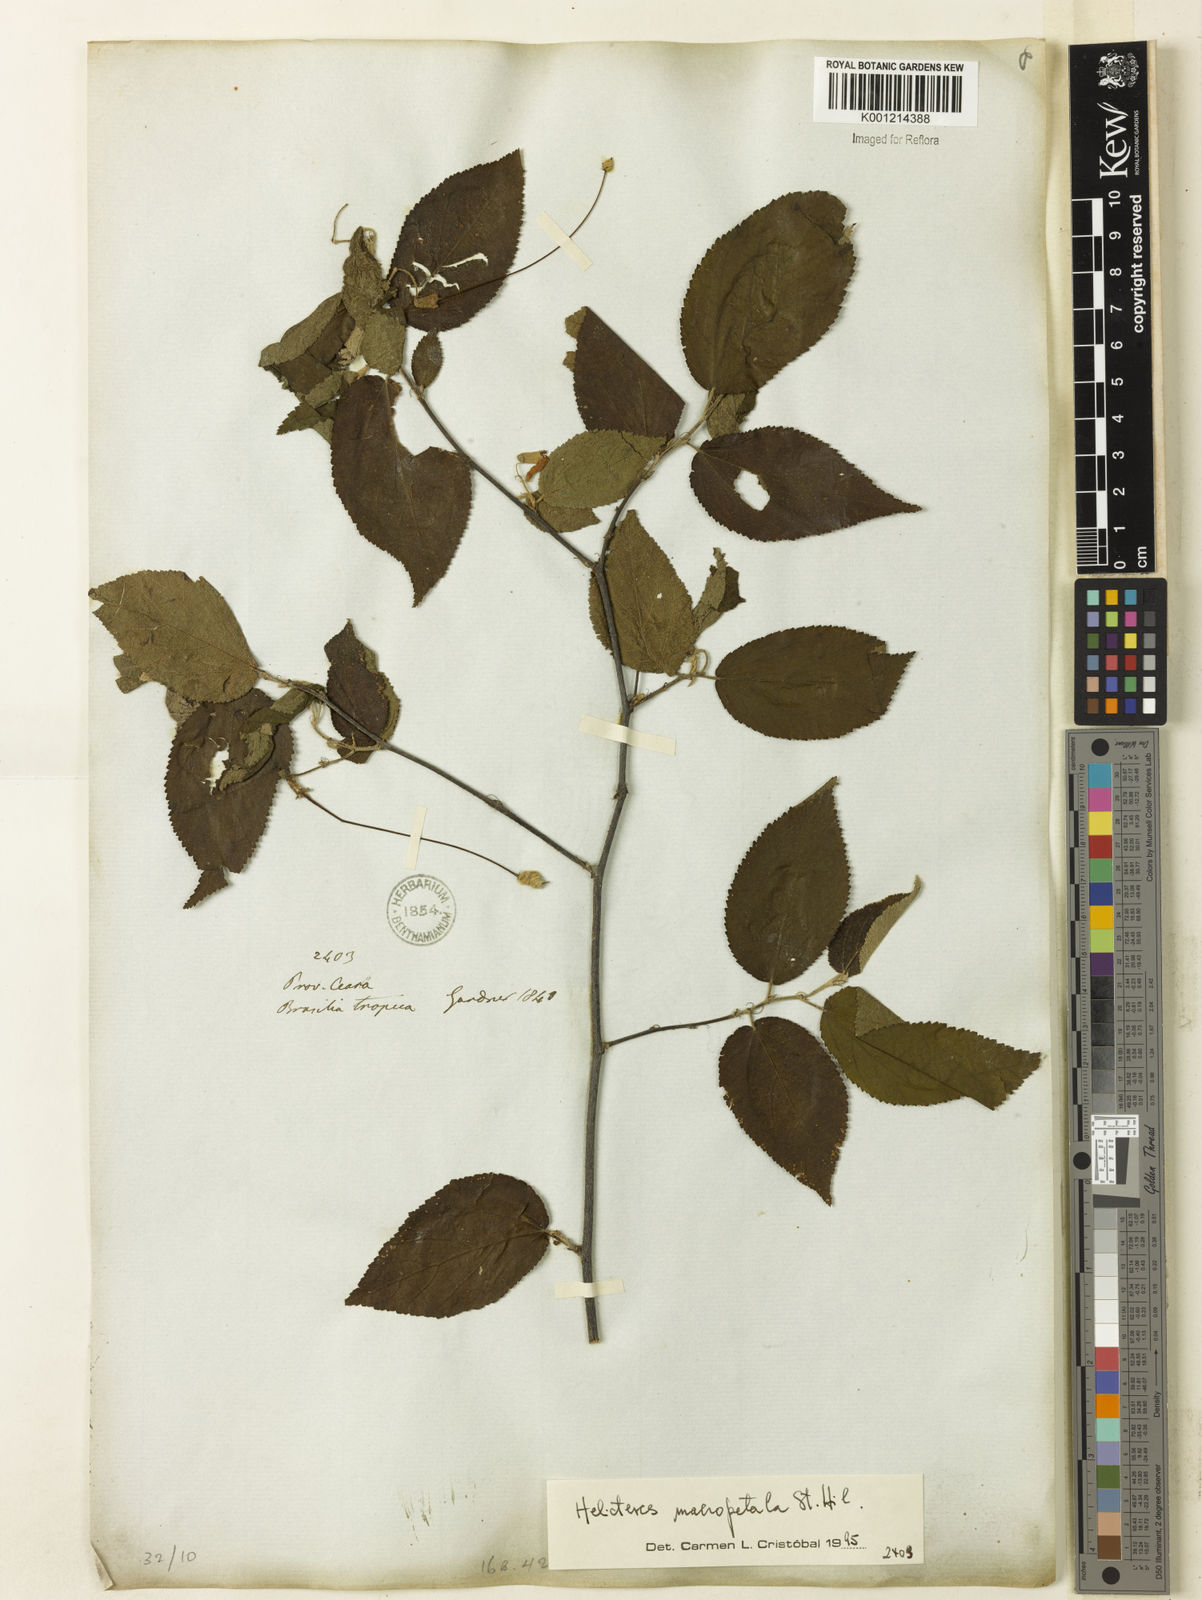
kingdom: Plantae
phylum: Tracheophyta
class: Magnoliopsida
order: Malvales
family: Malvaceae
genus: Helicteres
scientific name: Helicteres
